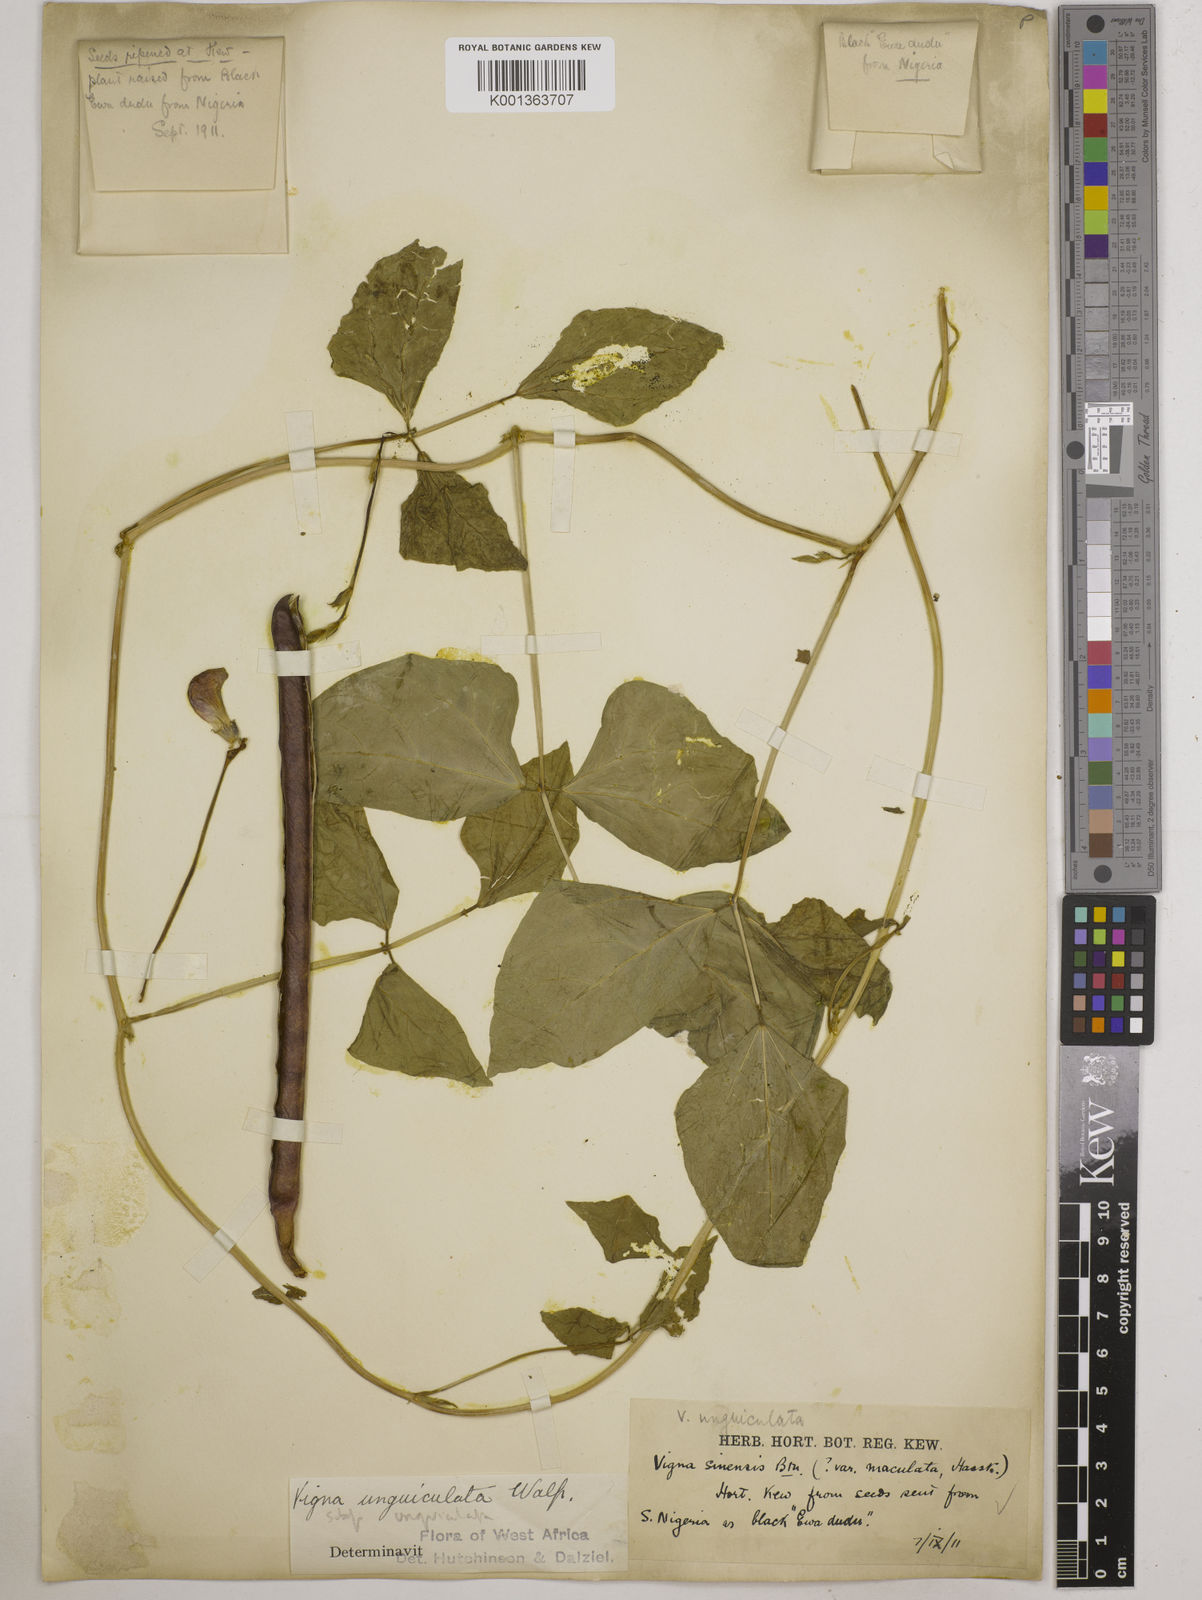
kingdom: Plantae
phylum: Tracheophyta
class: Magnoliopsida
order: Fabales
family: Fabaceae
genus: Vigna
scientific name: Vigna unguiculata
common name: Cowpea
